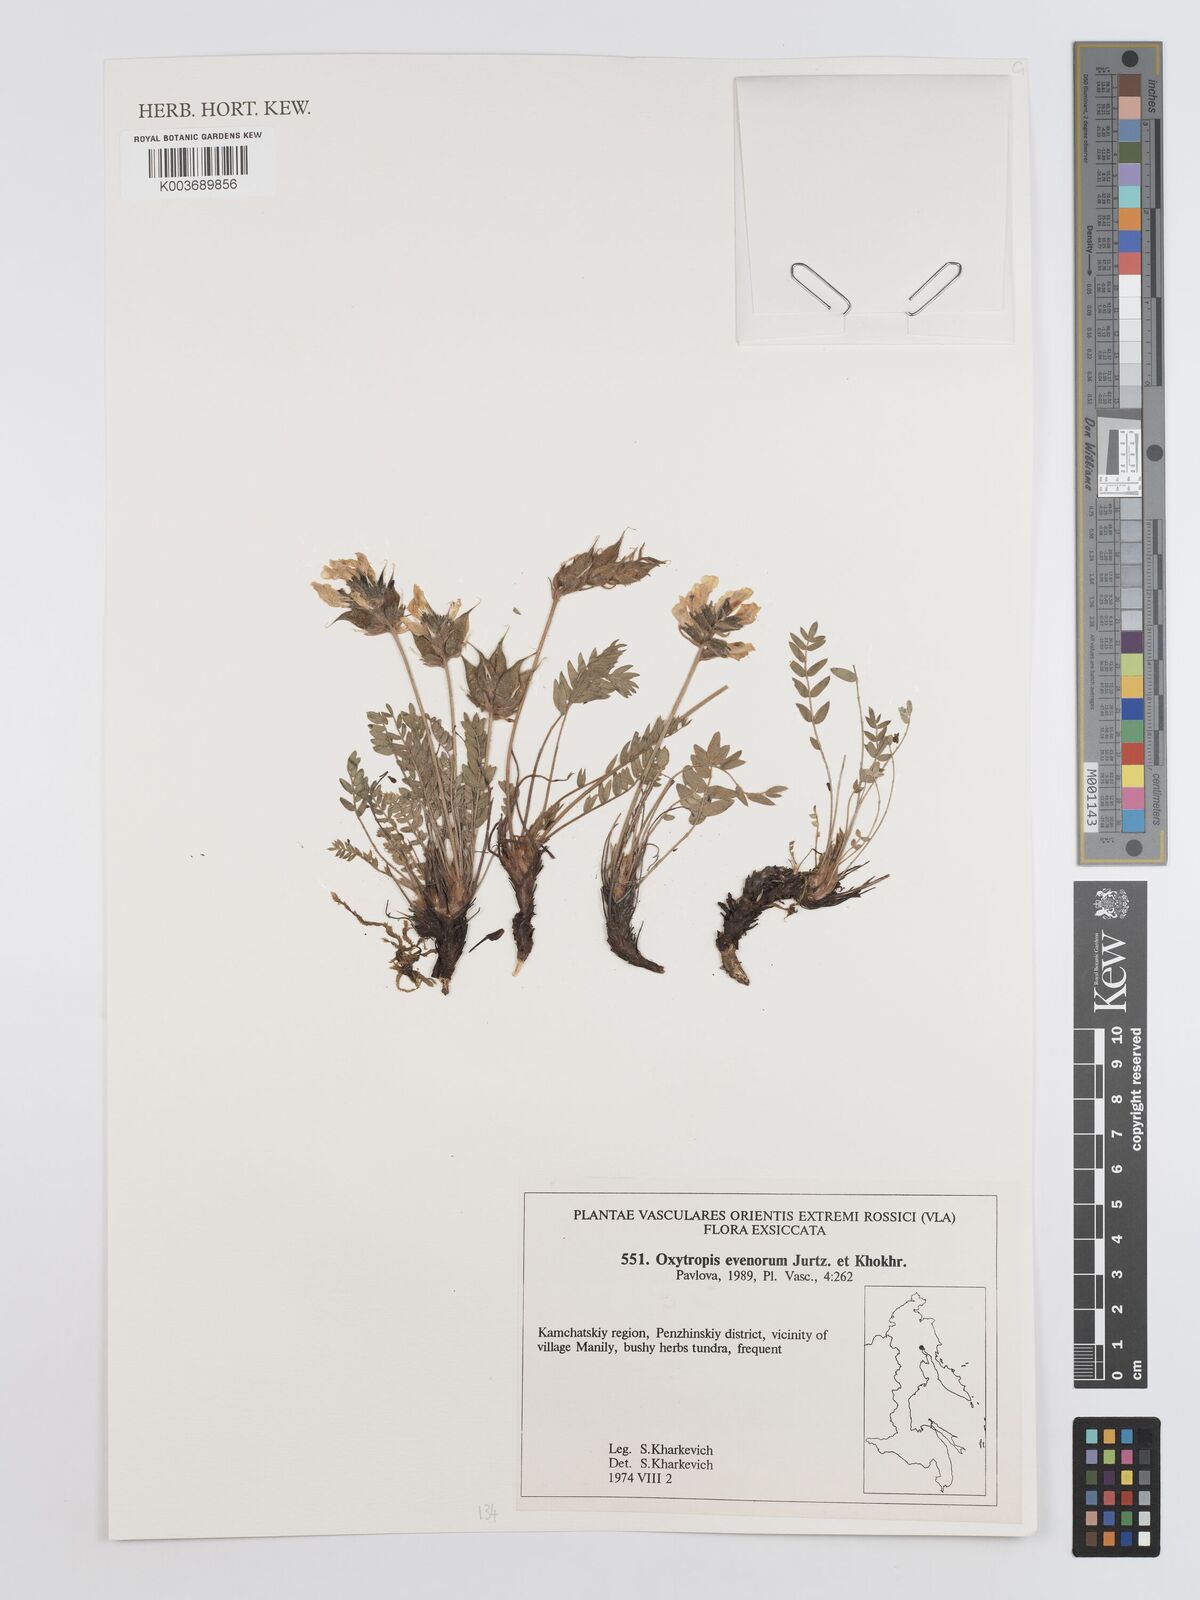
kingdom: Plantae
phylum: Tracheophyta
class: Magnoliopsida
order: Fabales
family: Fabaceae
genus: Oxytropis
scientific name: Oxytropis evenorum
